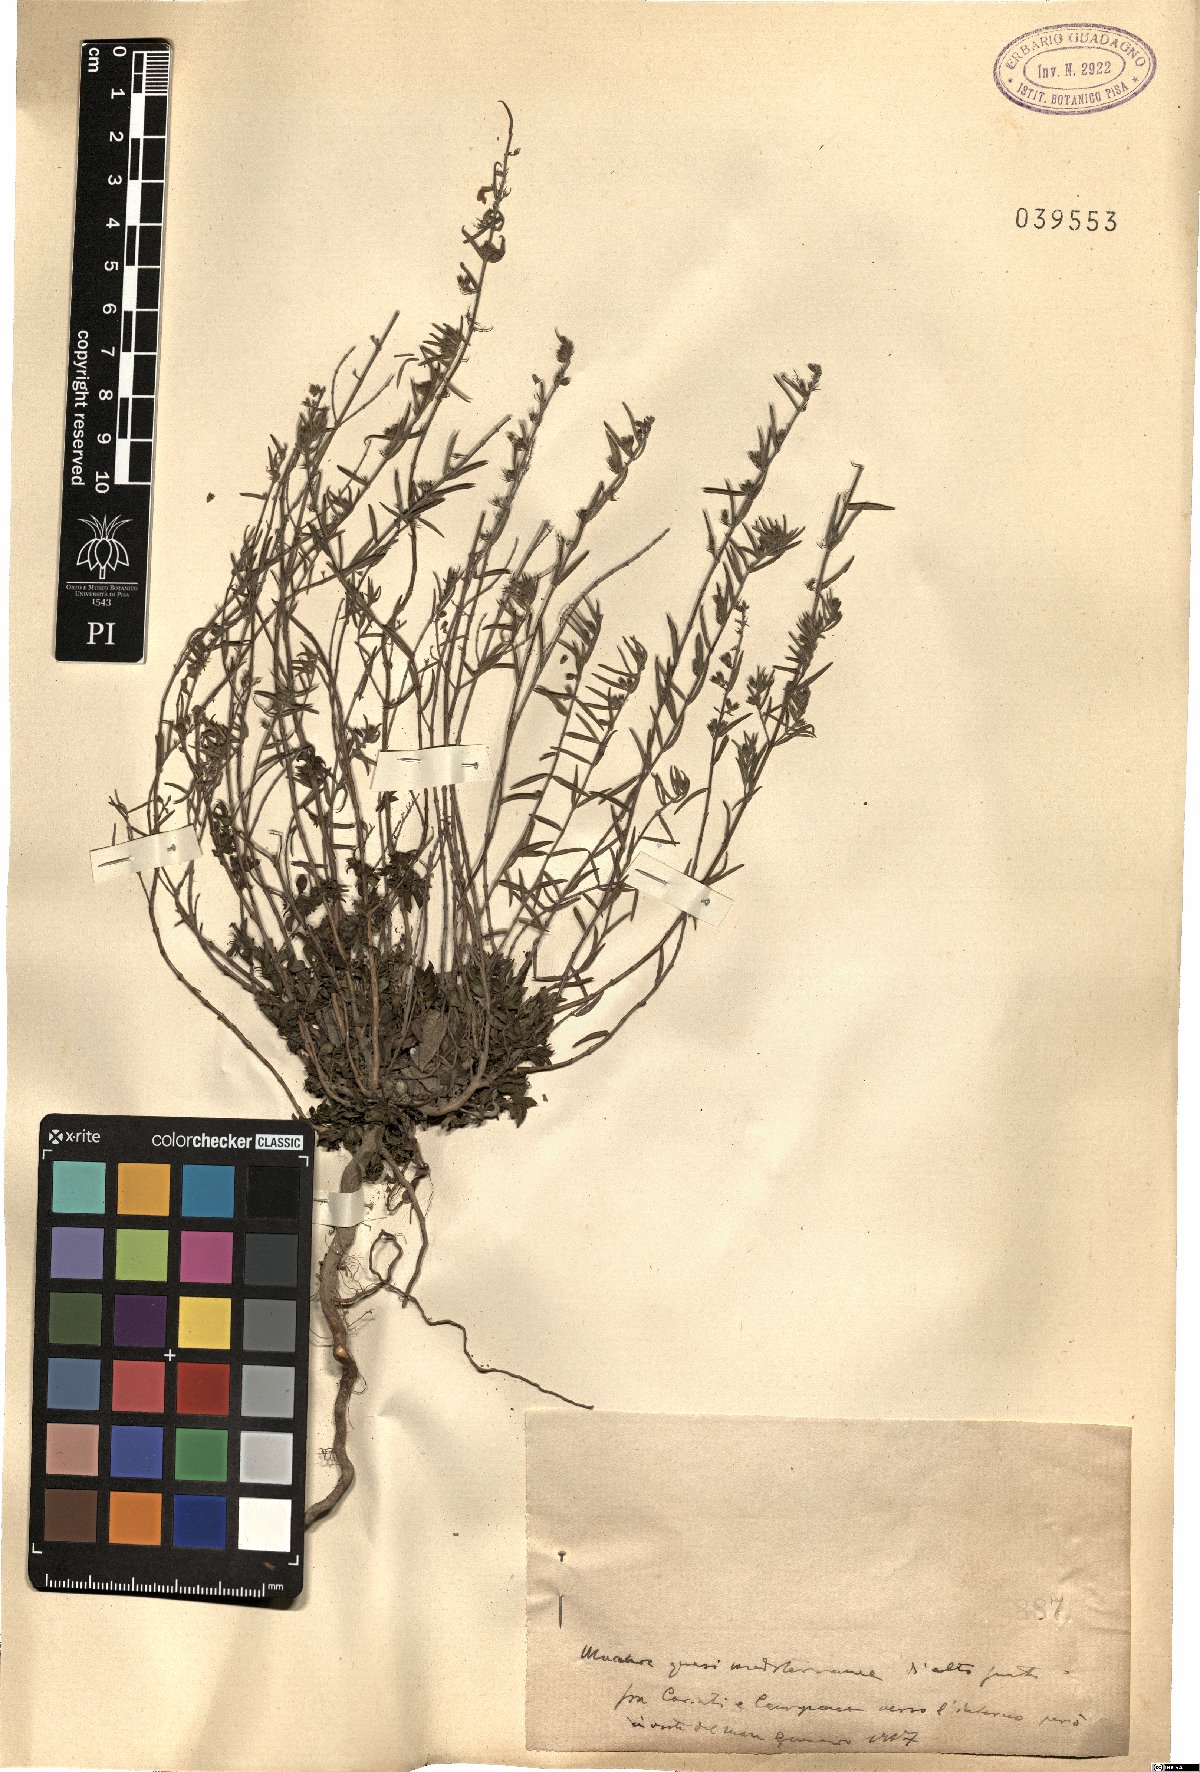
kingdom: Plantae
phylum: Tracheophyta
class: Magnoliopsida
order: Lamiales
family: Lamiaceae
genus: Micromeria
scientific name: Micromeria
